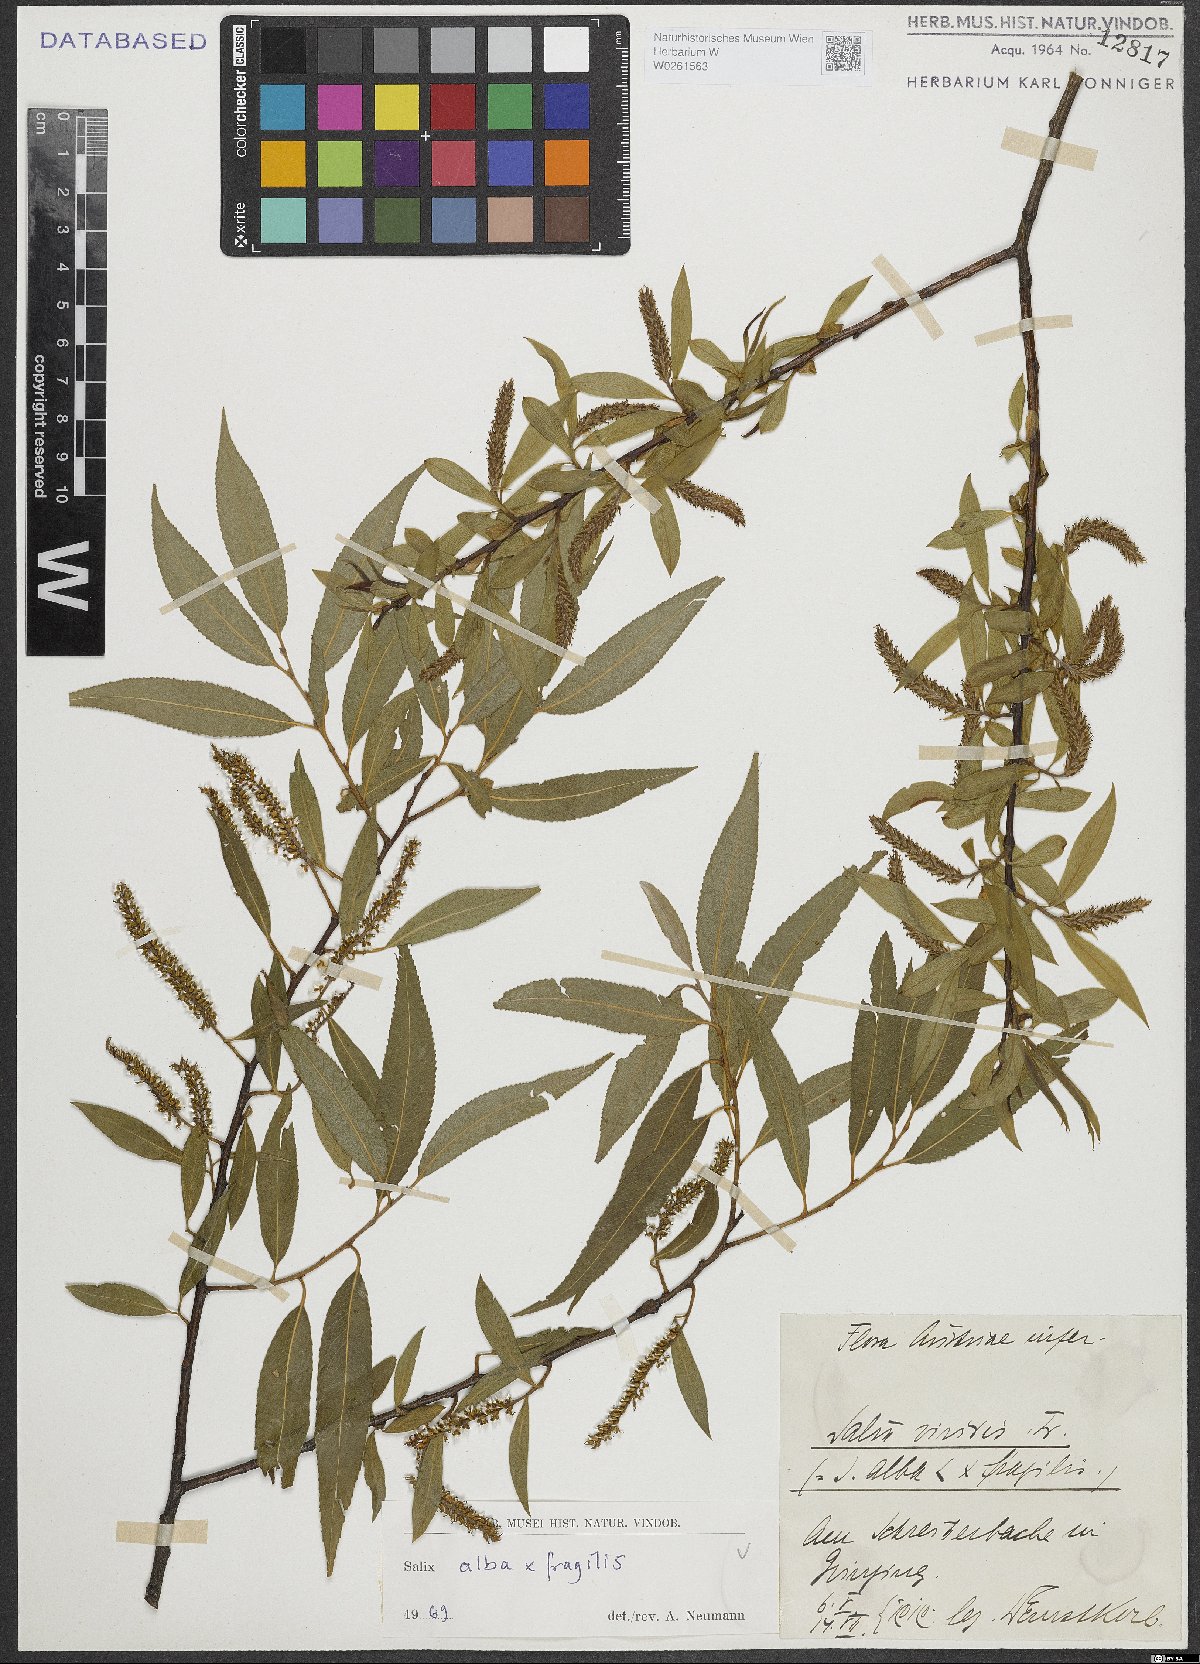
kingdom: Plantae
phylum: Tracheophyta
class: Magnoliopsida
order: Malpighiales
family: Salicaceae
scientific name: Salicaceae
